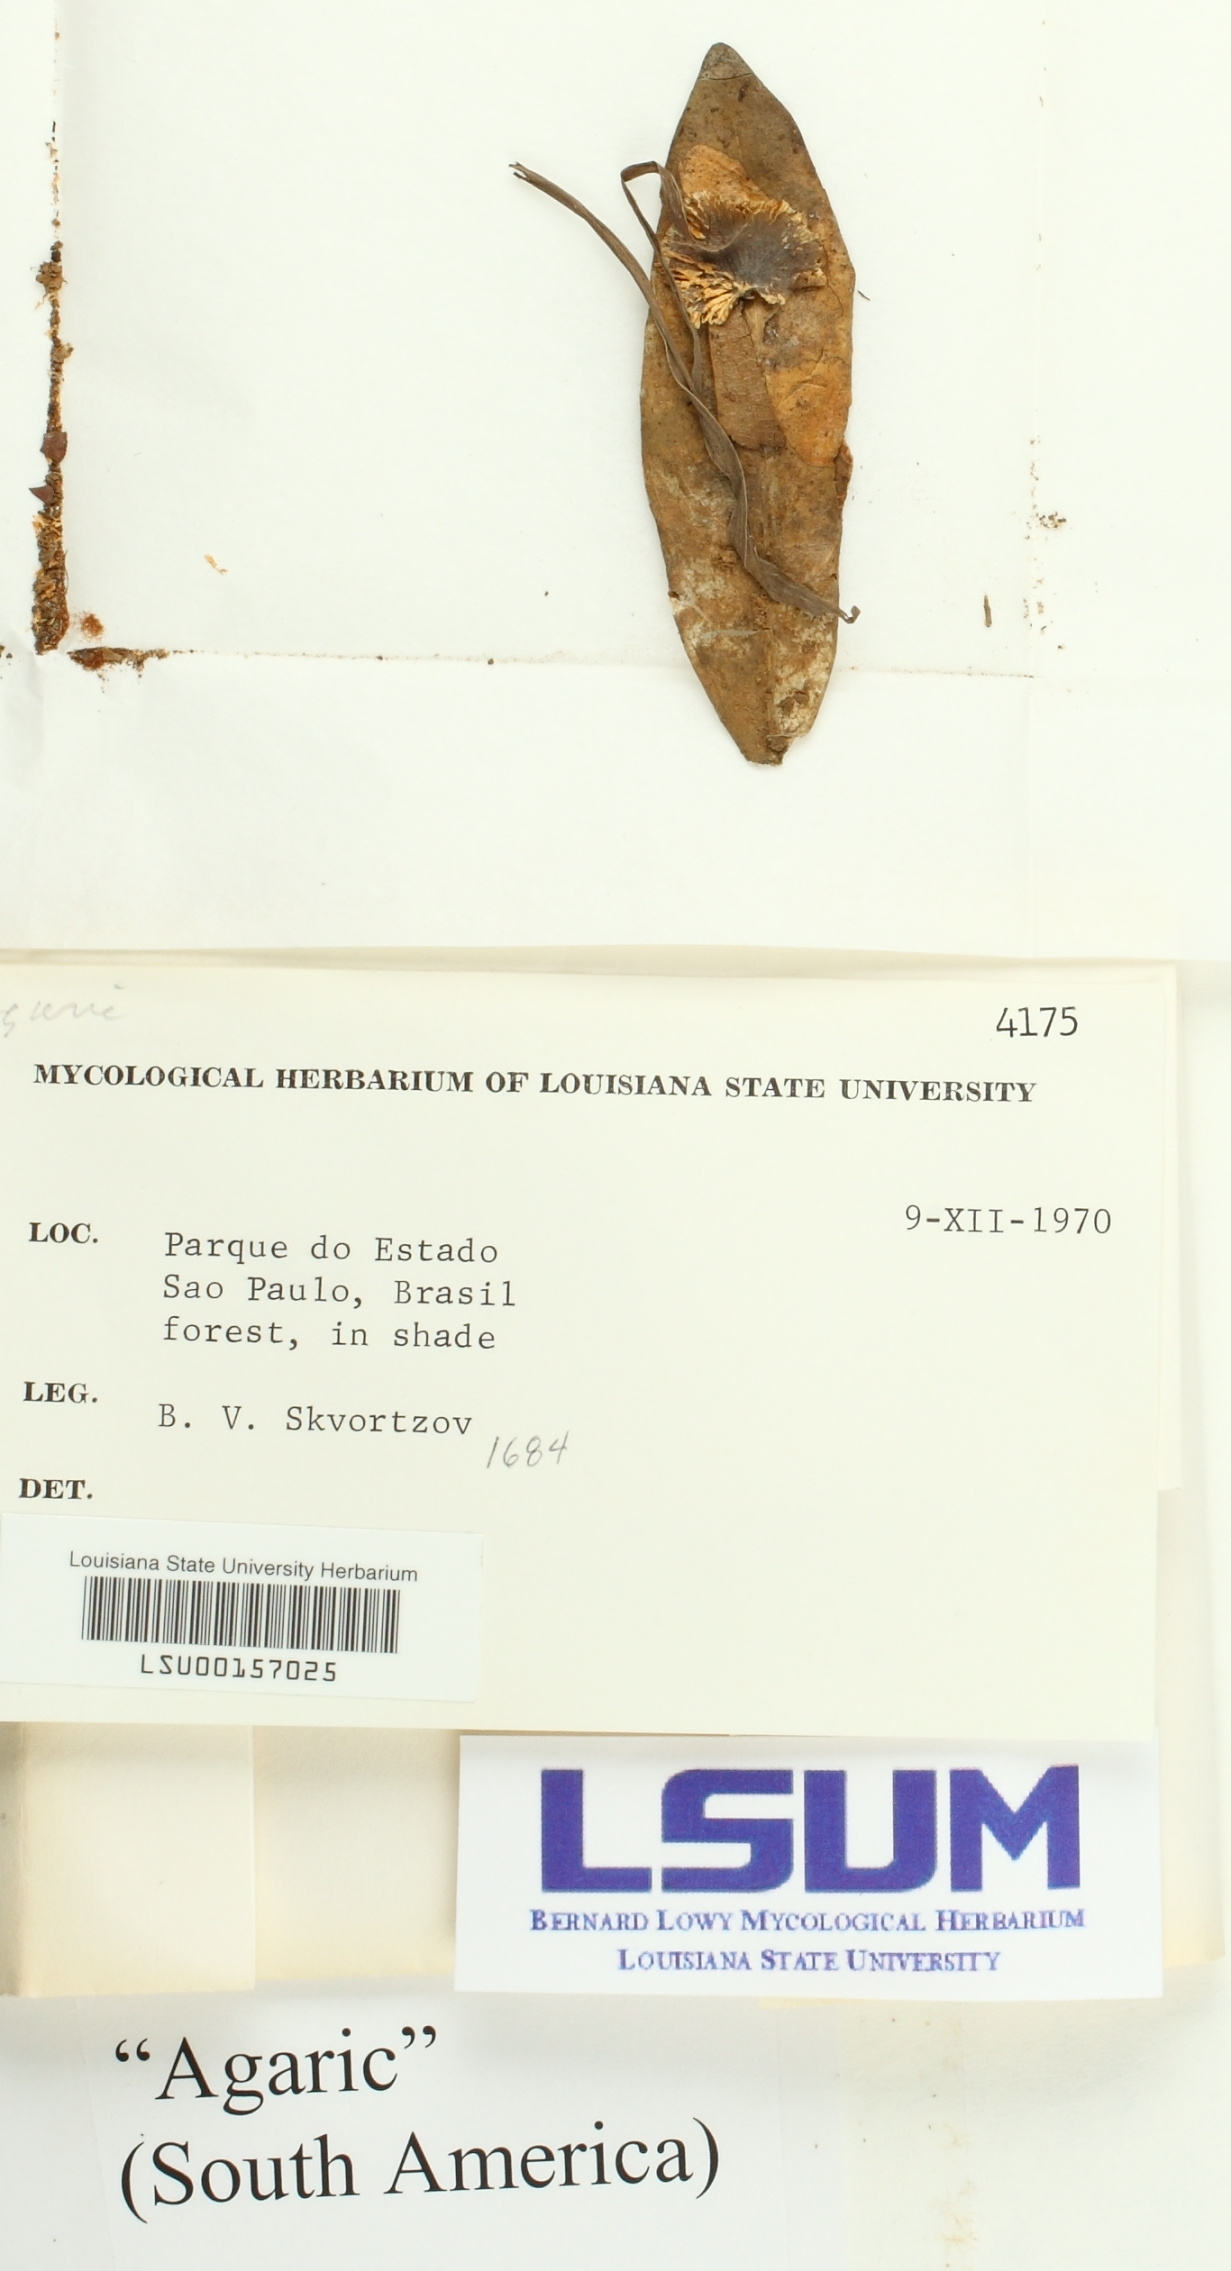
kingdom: Fungi
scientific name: Fungi
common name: Fungi
